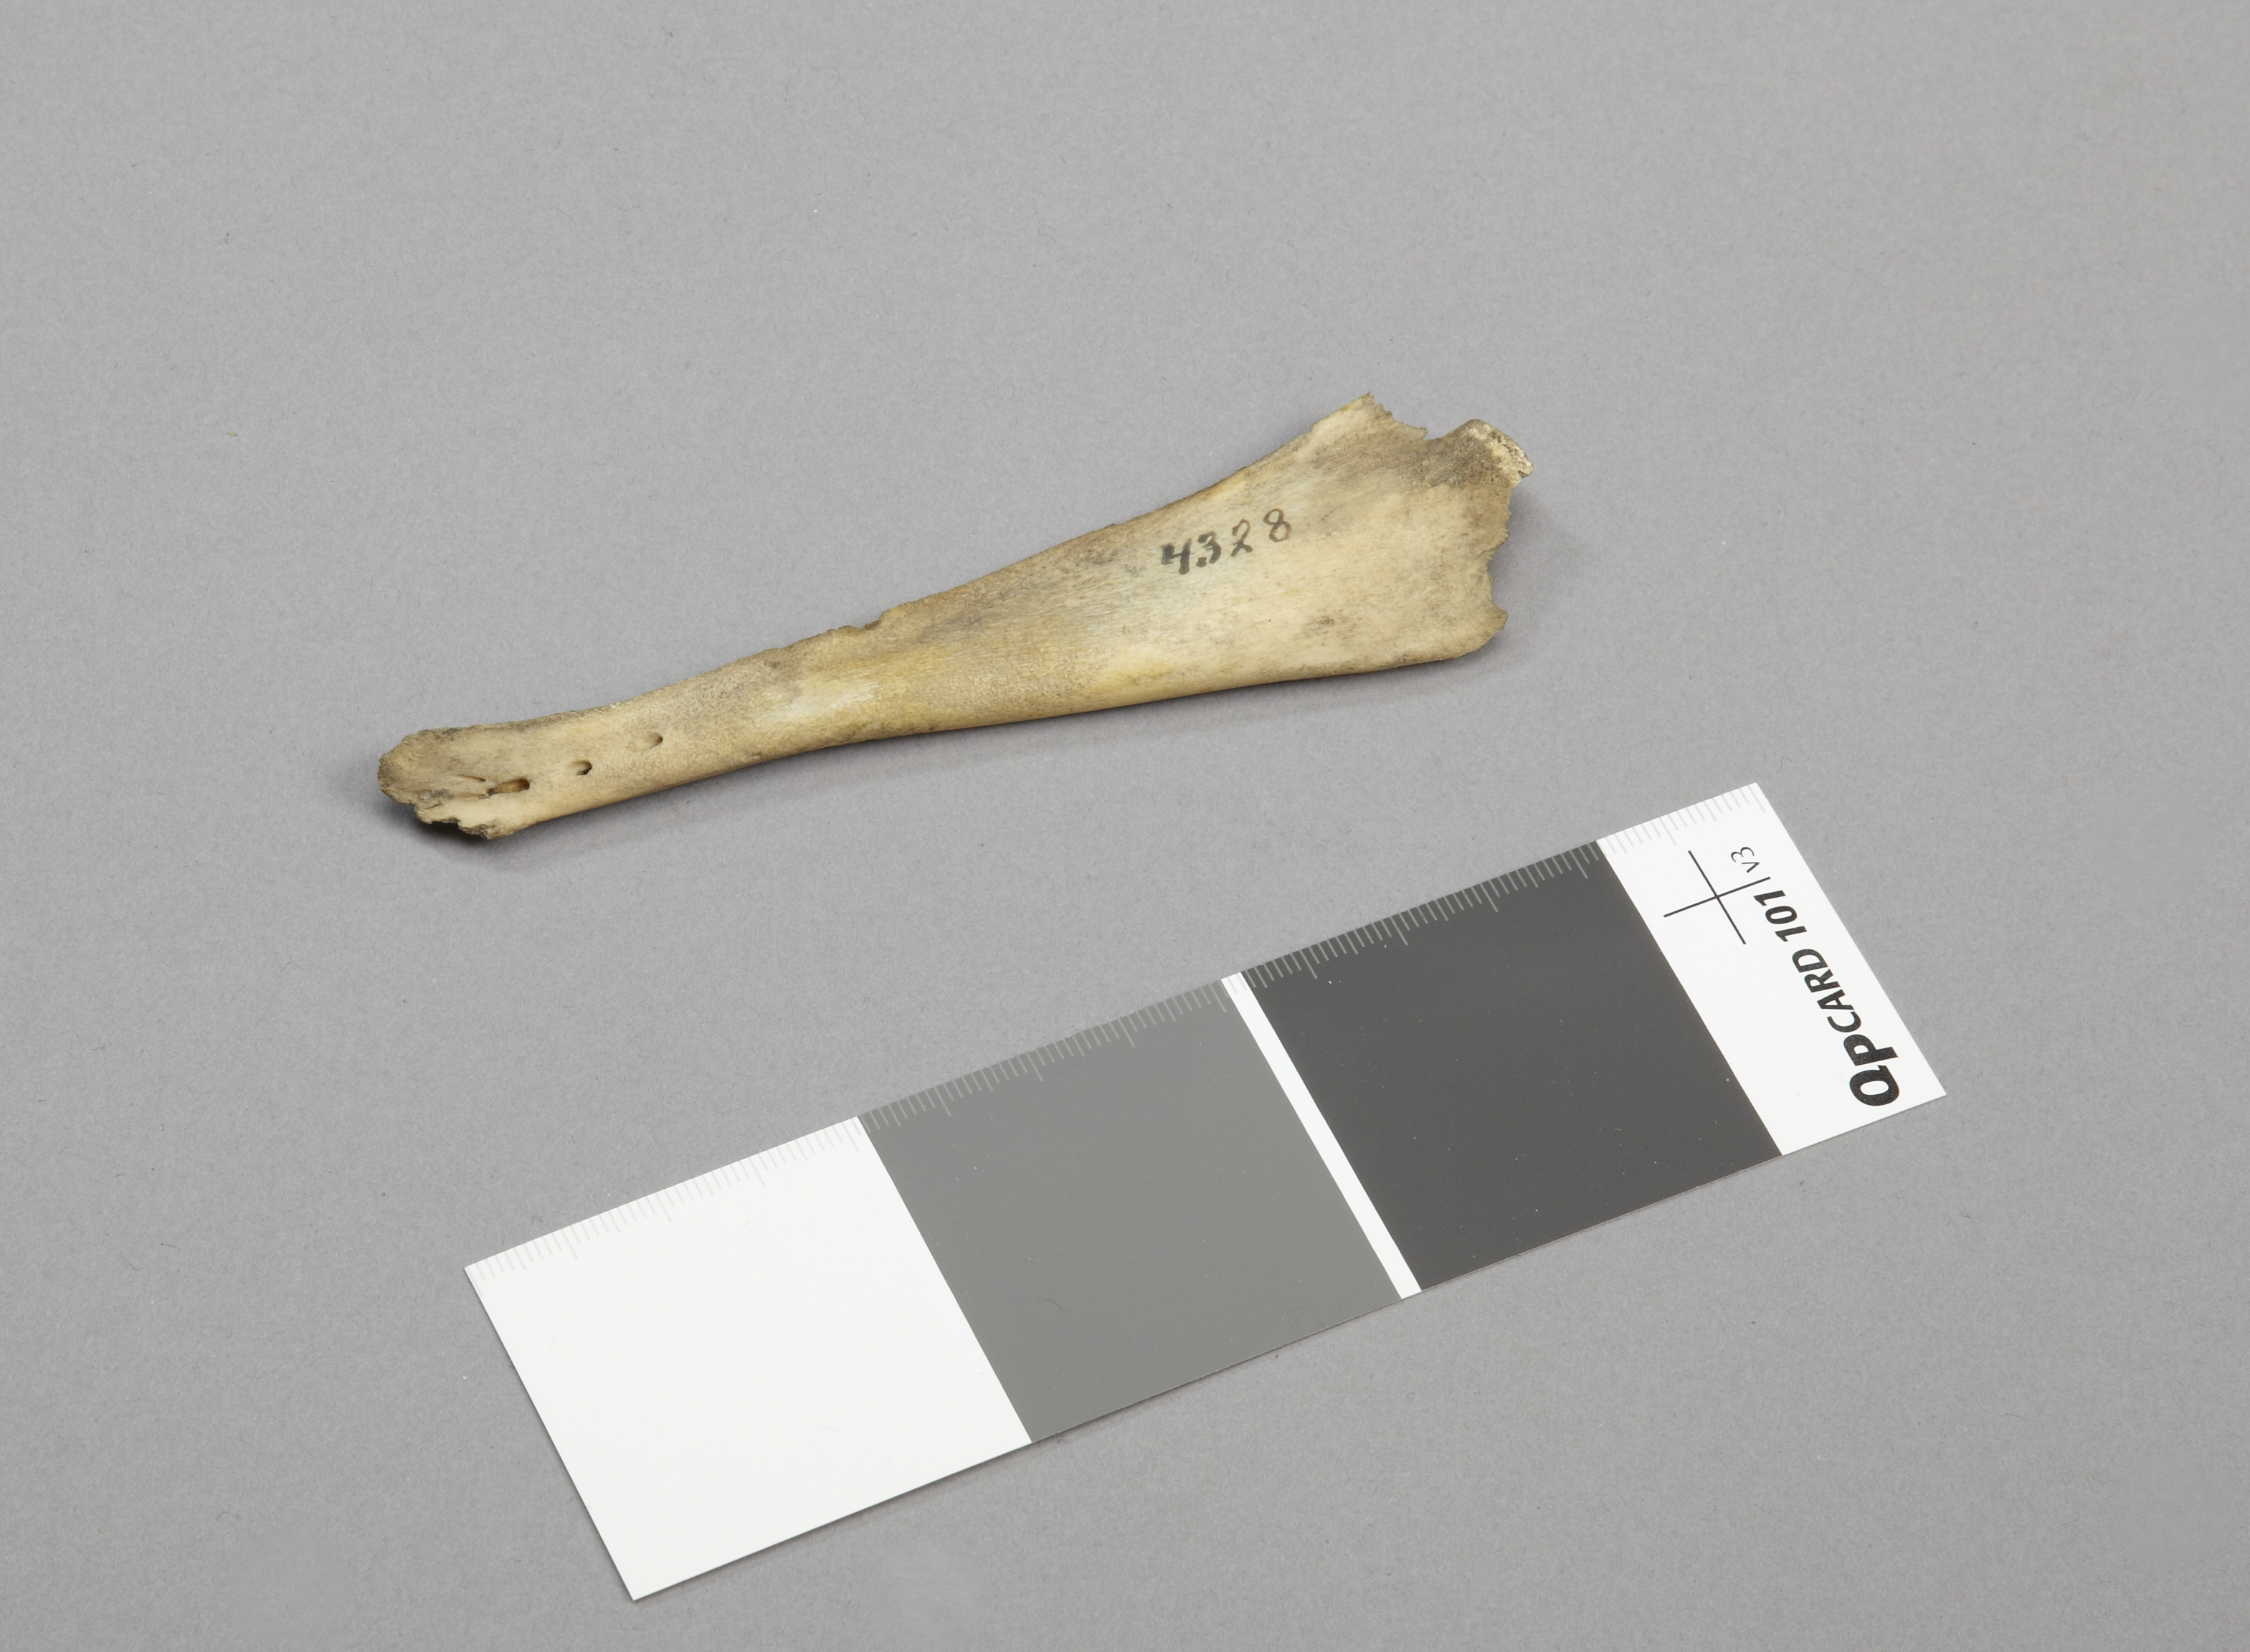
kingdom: Animalia
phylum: Chordata
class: Mammalia
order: Cetacea
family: Phocoenidae
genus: Phocoena
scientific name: Phocoena phocoena
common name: Harbor porpoise
